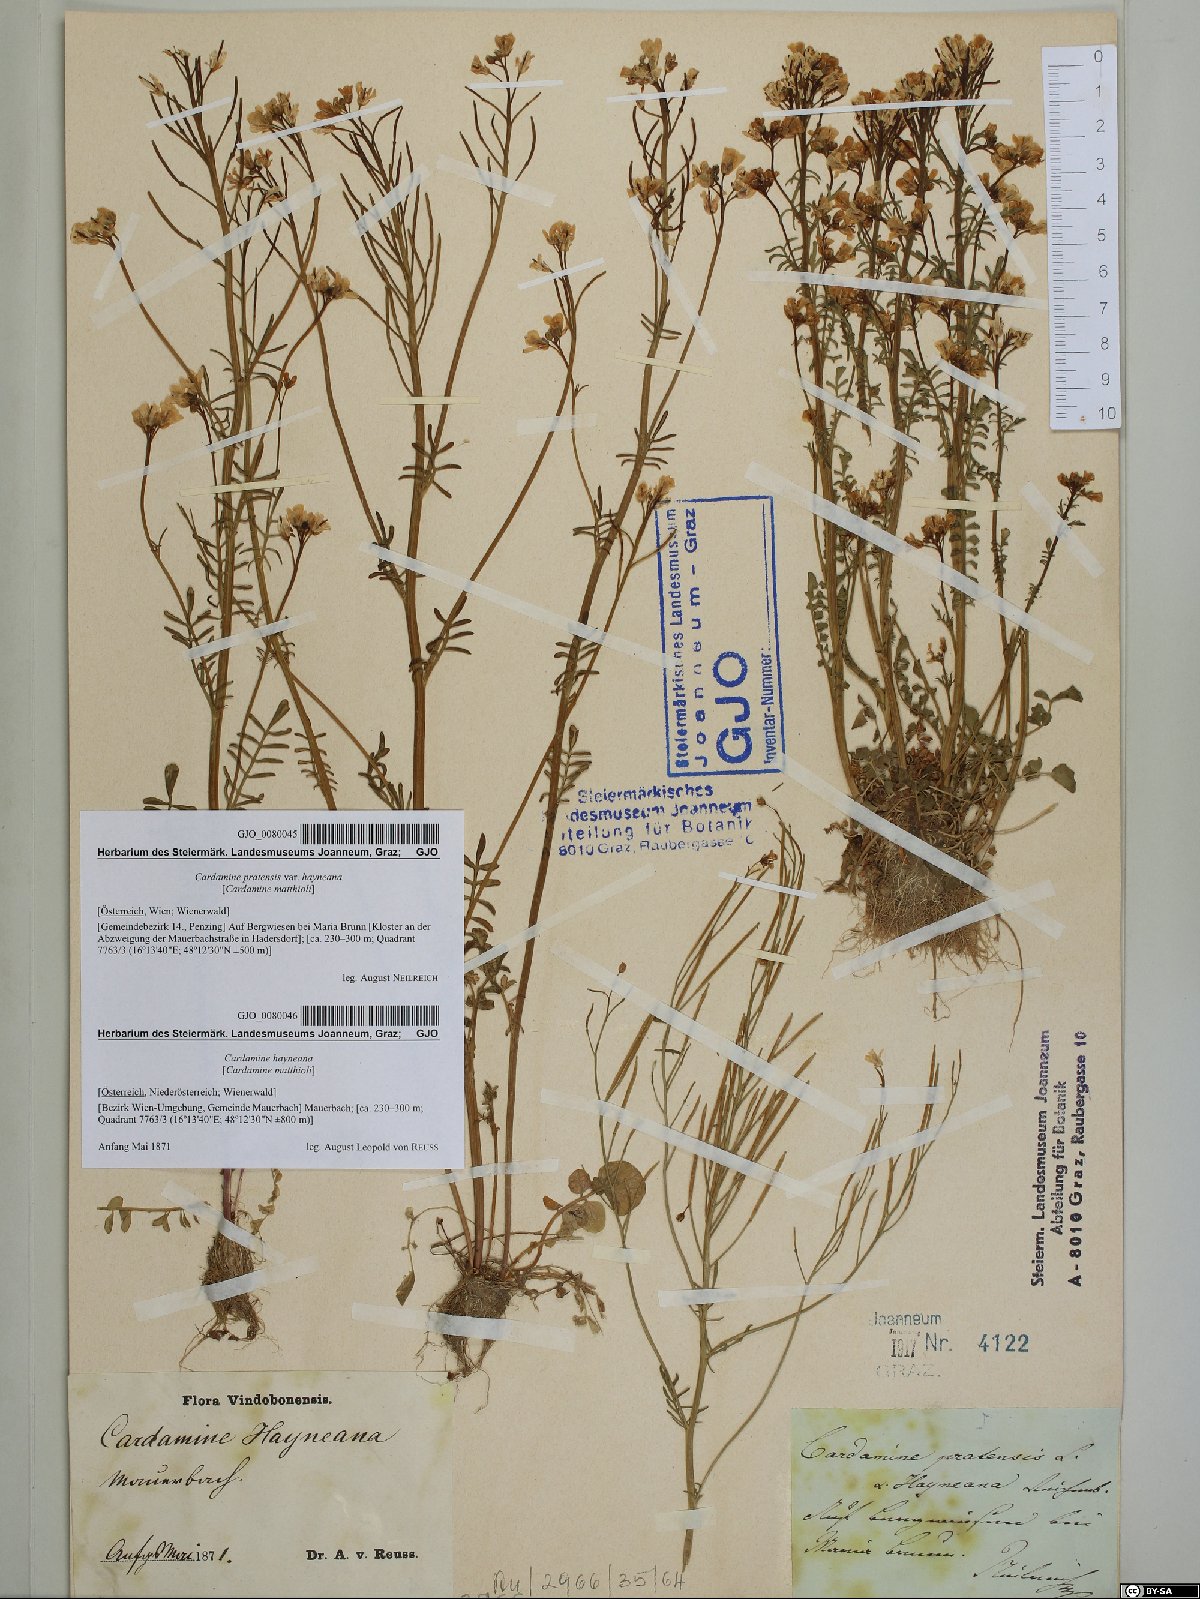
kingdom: Plantae
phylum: Tracheophyta
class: Magnoliopsida
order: Brassicales
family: Brassicaceae
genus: Cardamine
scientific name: Cardamine matthioli
